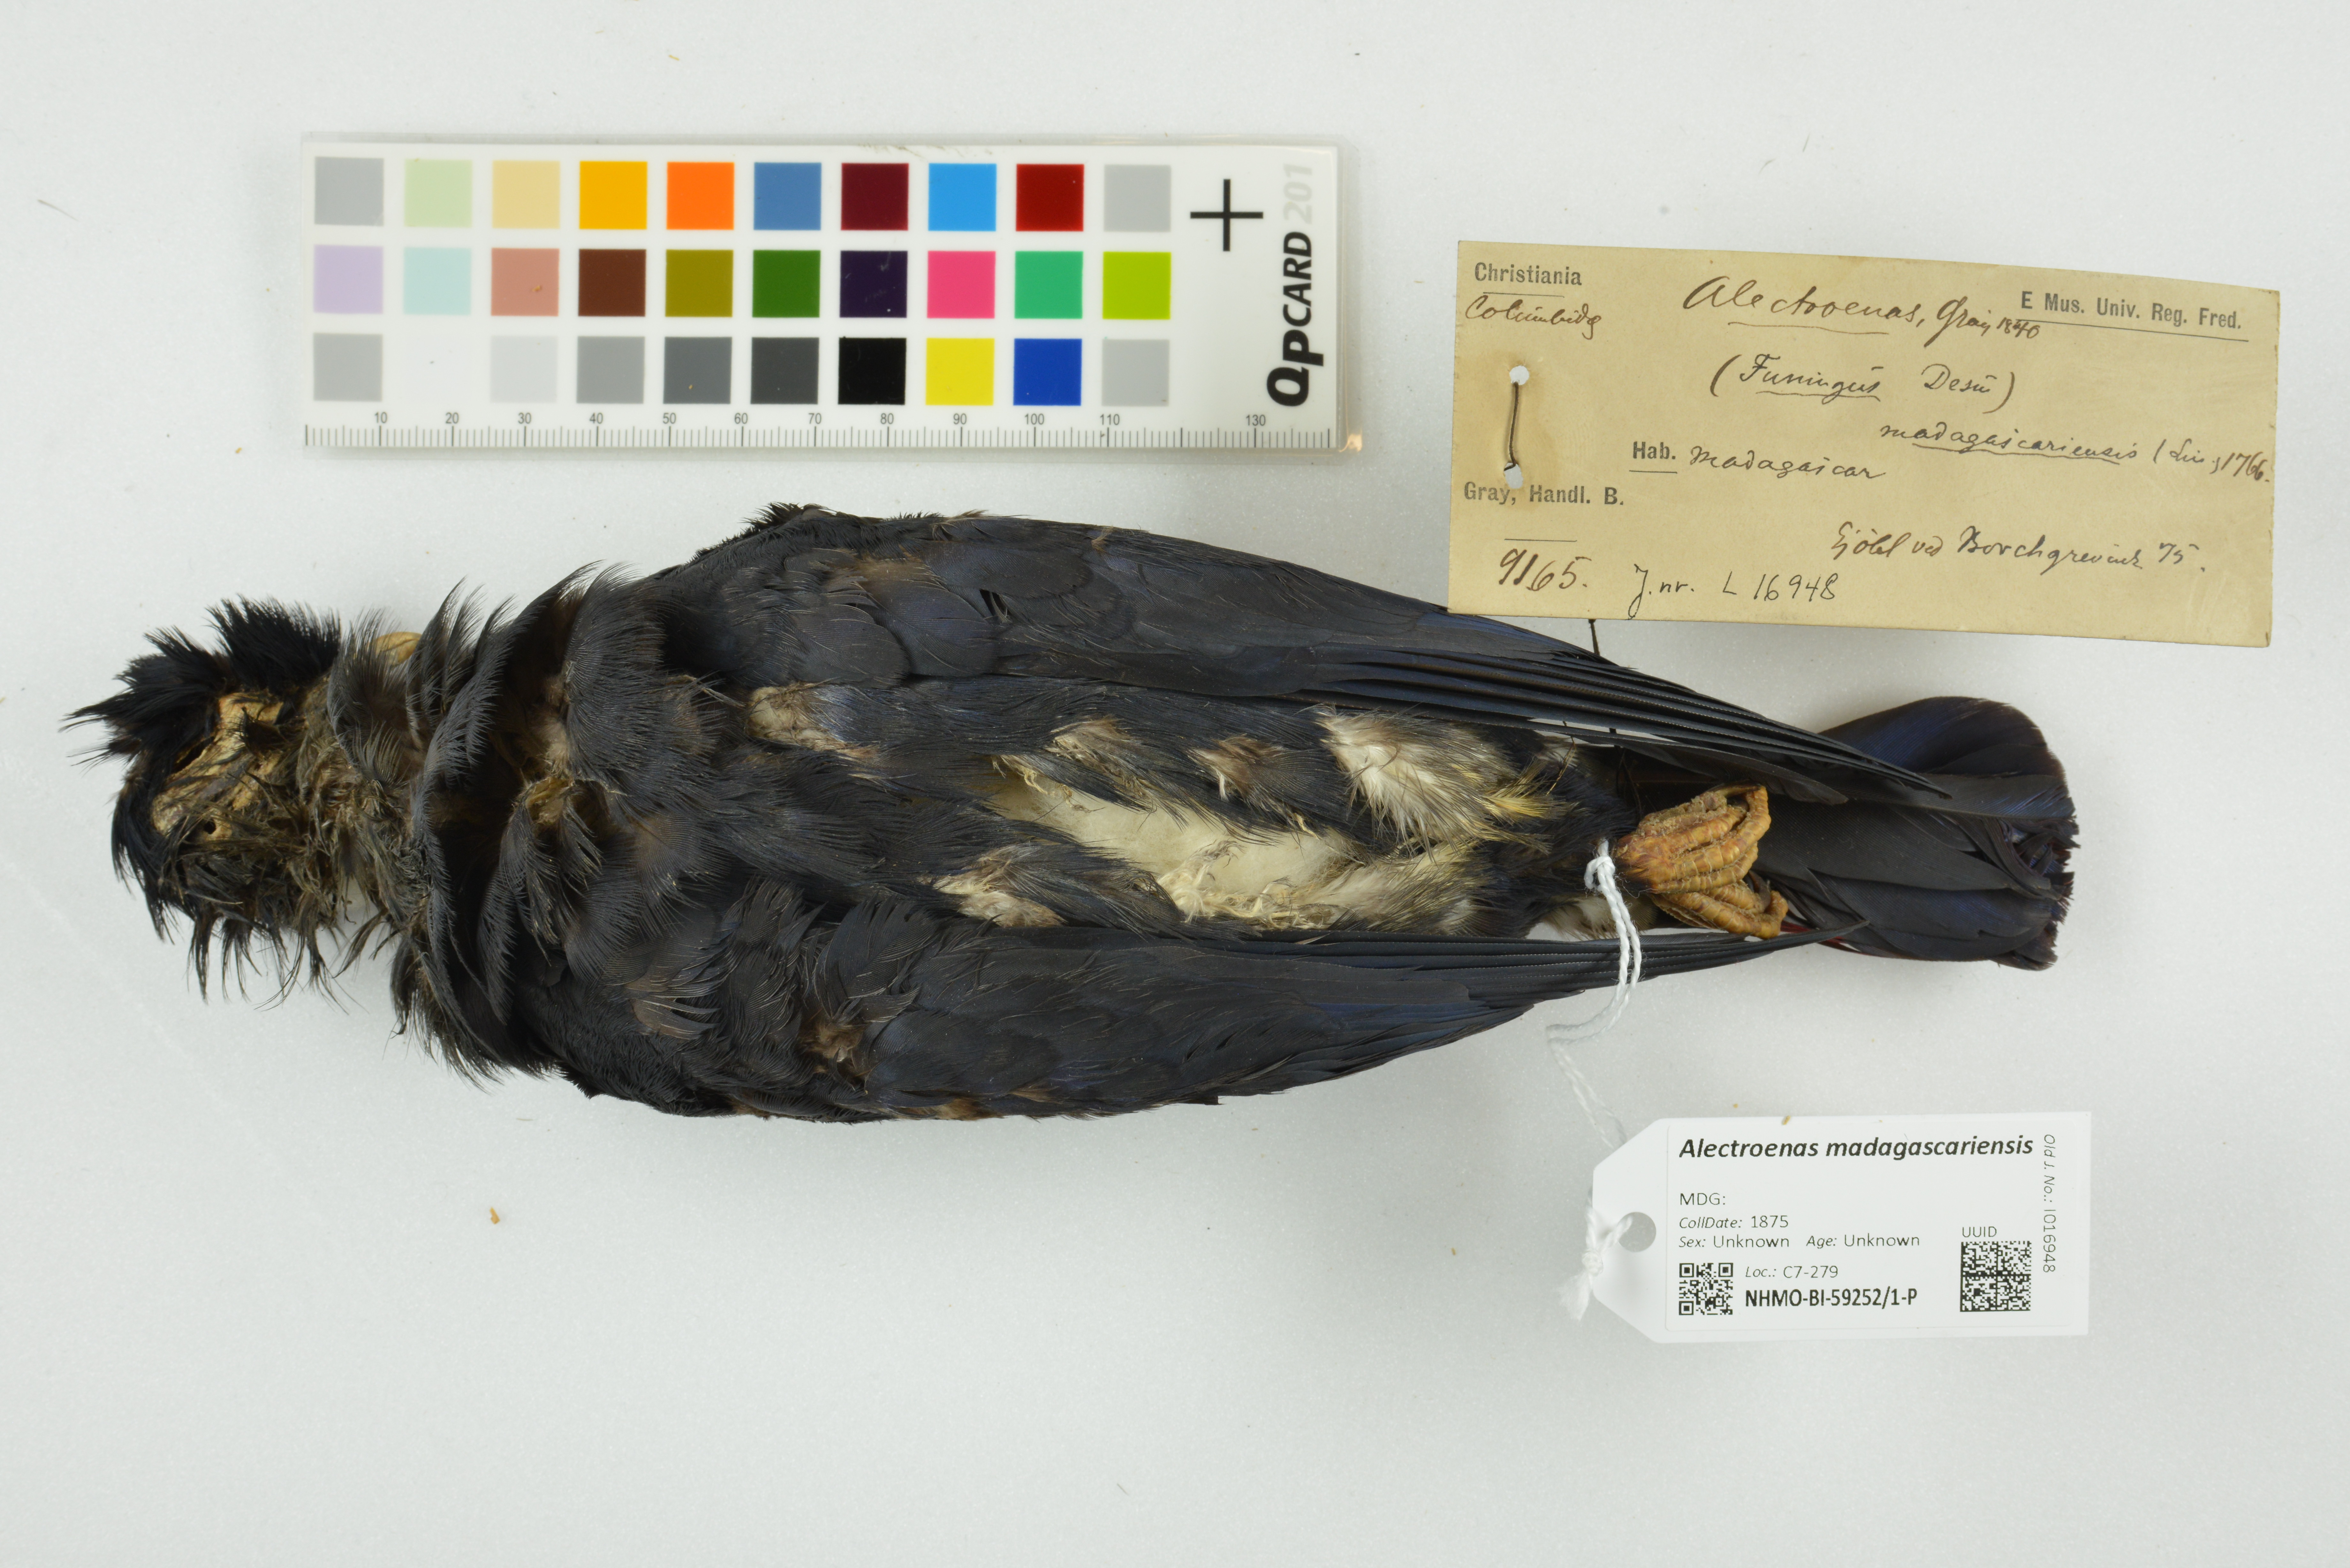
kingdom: Animalia
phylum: Chordata
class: Aves
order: Columbiformes
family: Columbidae
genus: Alectroenas
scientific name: Alectroenas madagascariensis
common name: Madagascar blue pigeon
